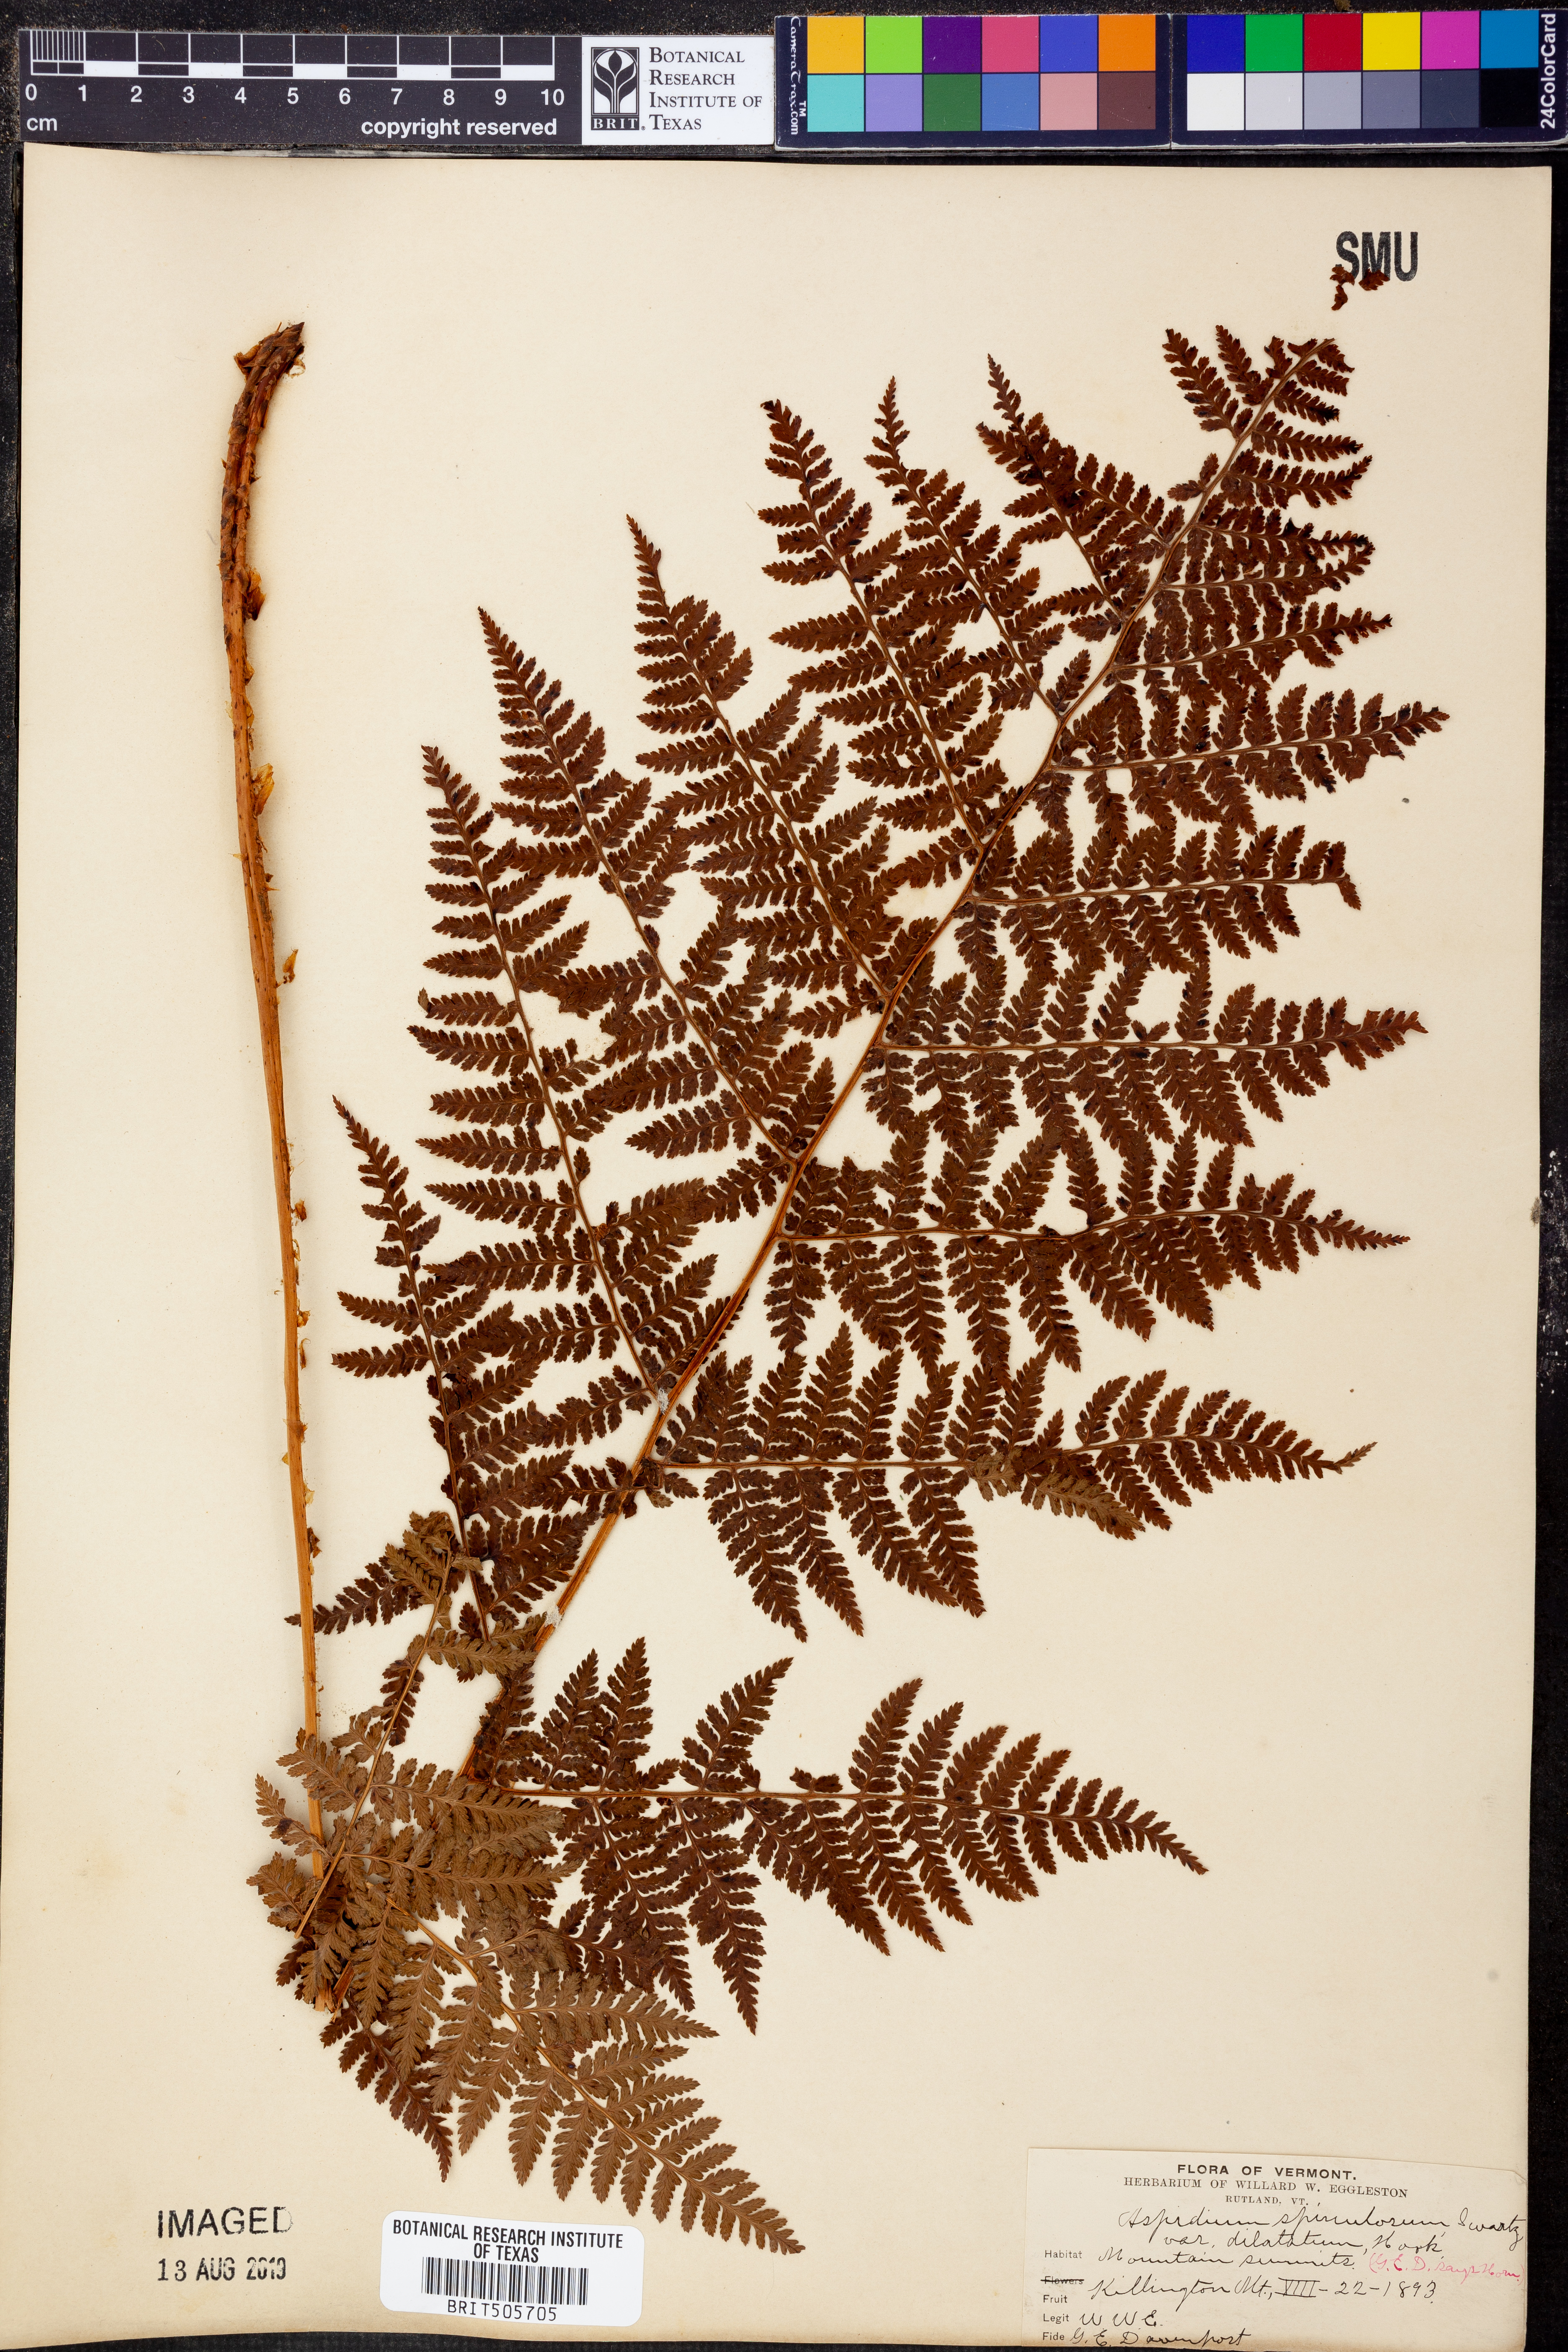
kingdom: Plantae
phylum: Tracheophyta
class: Polypodiopsida
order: Polypodiales
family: Dryopteridaceae
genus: Dryopteris
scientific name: Dryopteris dilatata
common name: Broad buckler-fern
